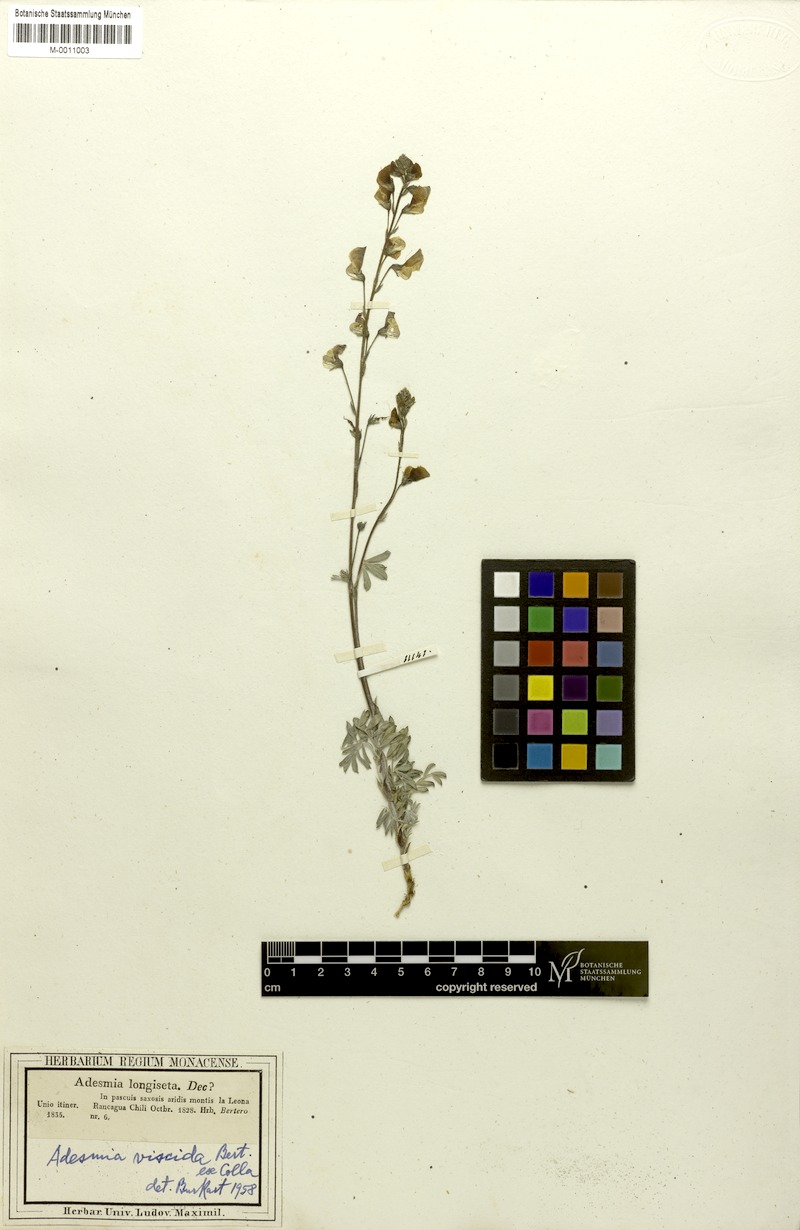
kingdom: Plantae
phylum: Tracheophyta
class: Magnoliopsida
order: Fabales
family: Fabaceae
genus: Adesmia
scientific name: Adesmia viscida
